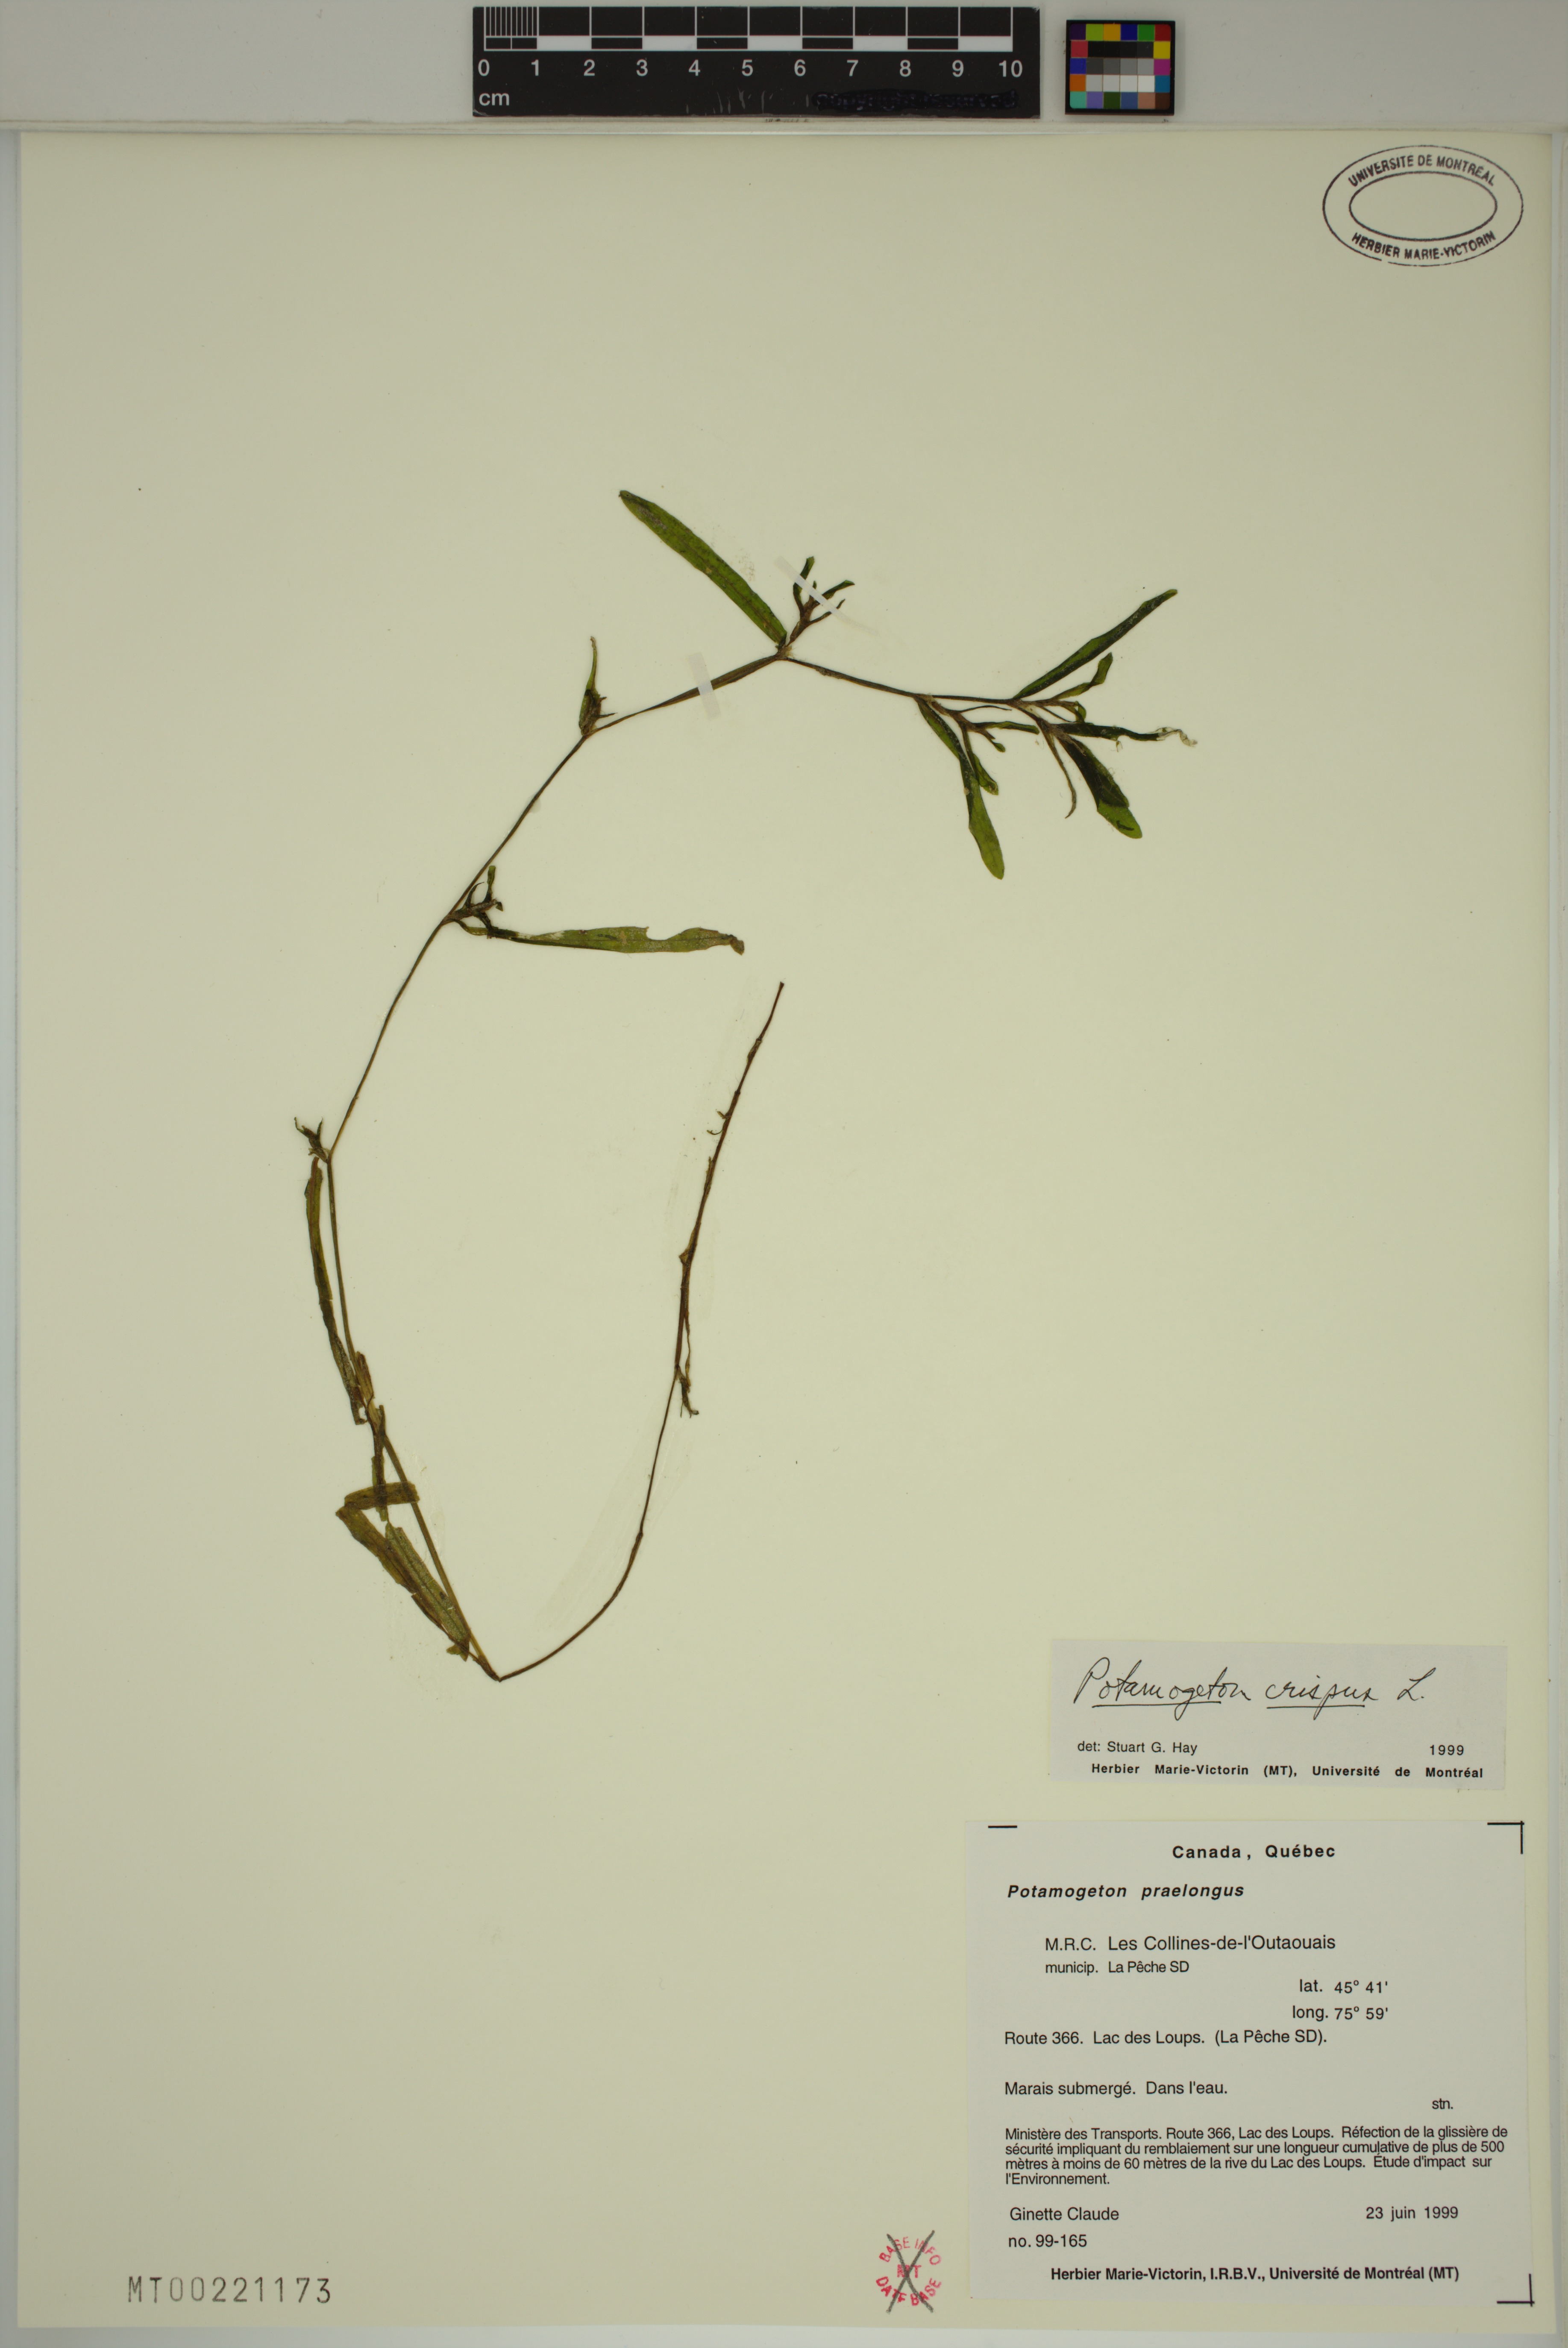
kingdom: Plantae
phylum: Tracheophyta
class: Liliopsida
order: Alismatales
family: Potamogetonaceae
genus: Potamogeton
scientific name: Potamogeton crispus
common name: Curled pondweed
